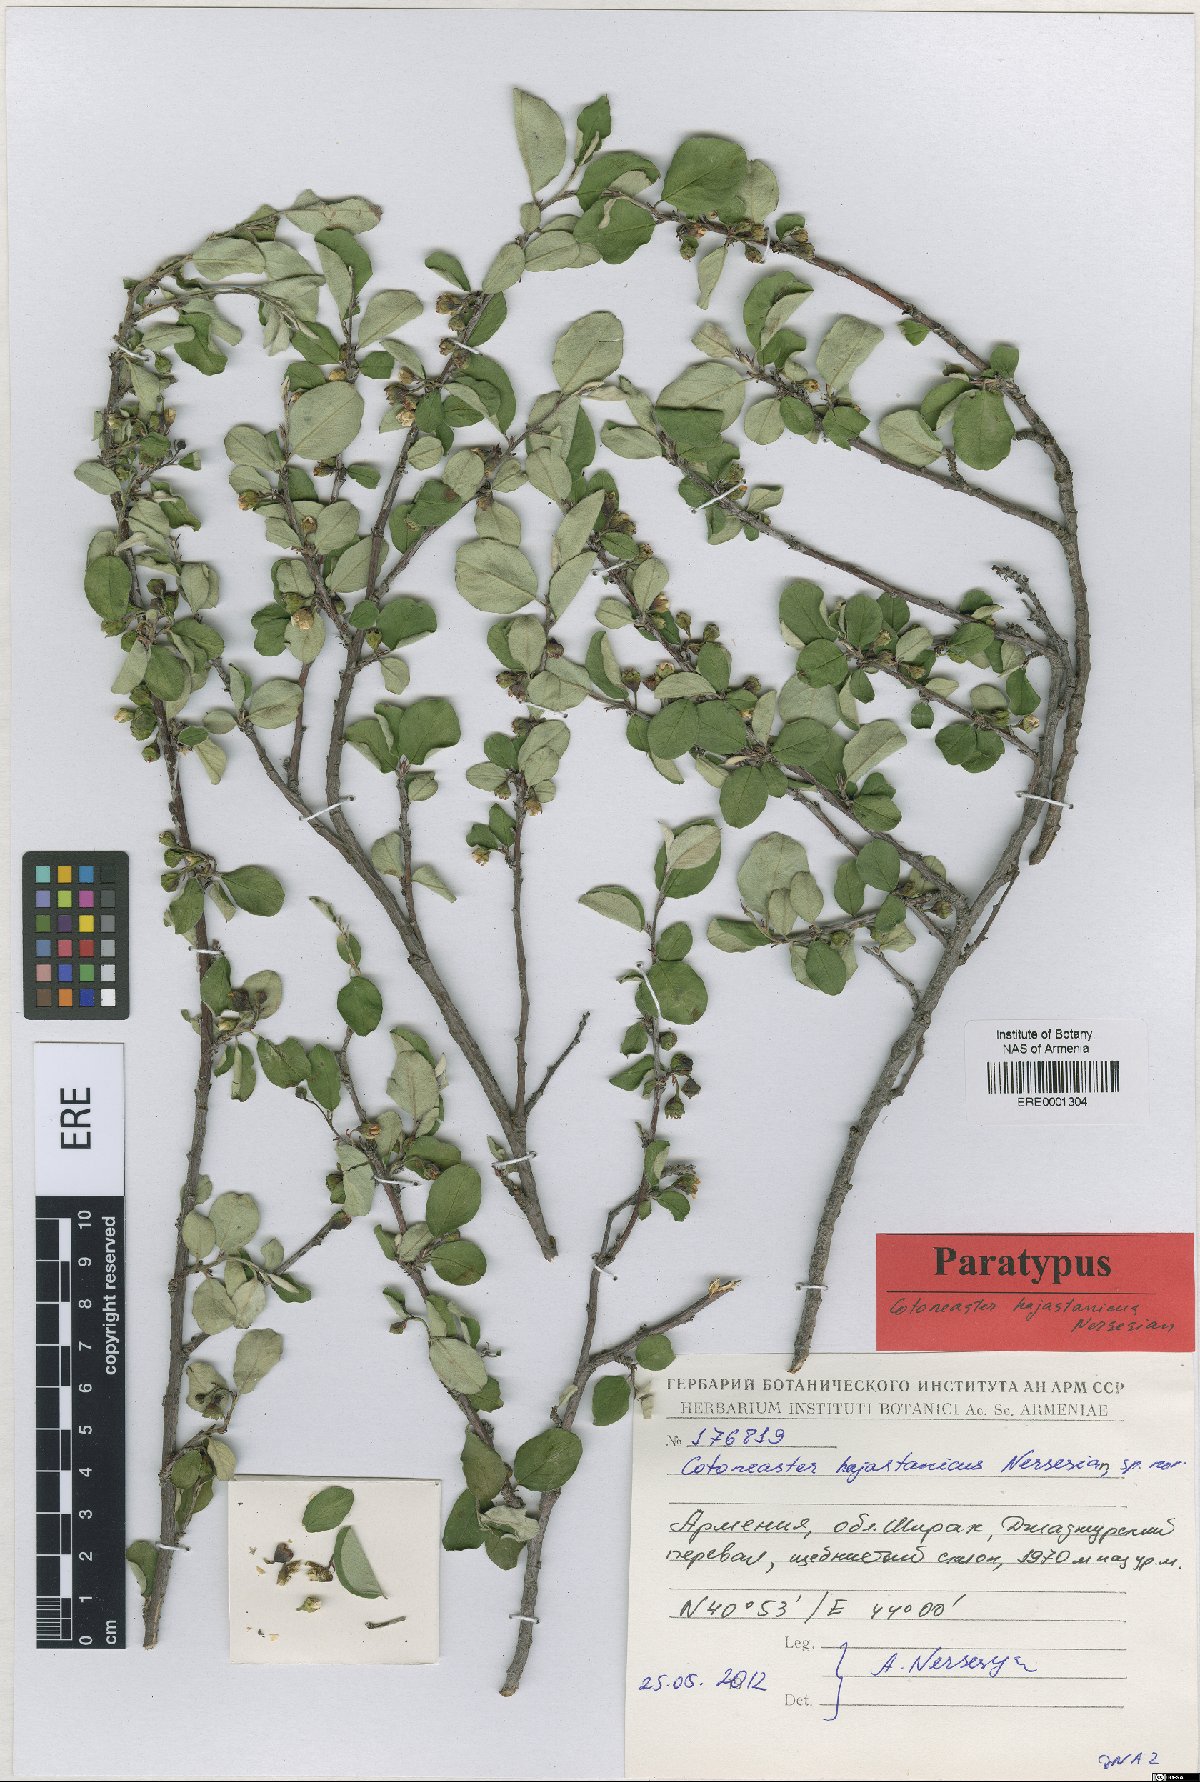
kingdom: Plantae
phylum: Tracheophyta
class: Magnoliopsida
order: Rosales
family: Rosaceae
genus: Cotoneaster
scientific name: Cotoneaster hajastanicus
